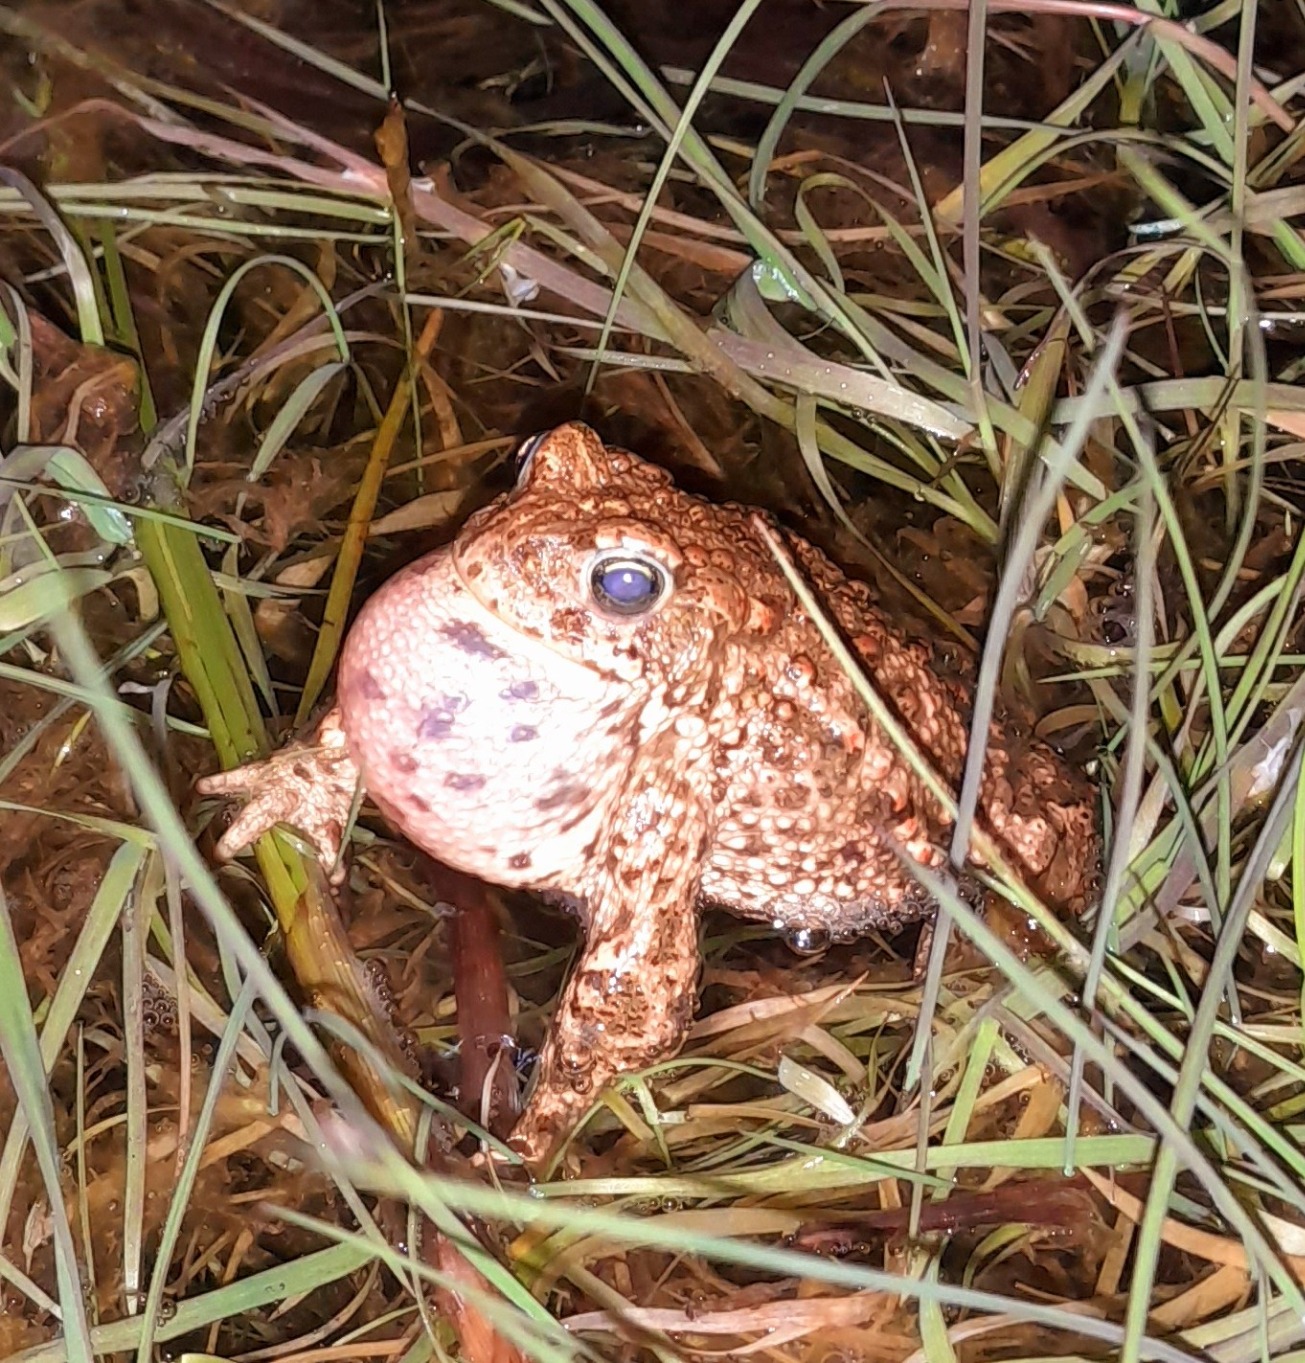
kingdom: Animalia
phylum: Chordata
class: Amphibia
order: Anura
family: Bufonidae
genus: Epidalea
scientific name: Epidalea calamita
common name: Strandtudse
